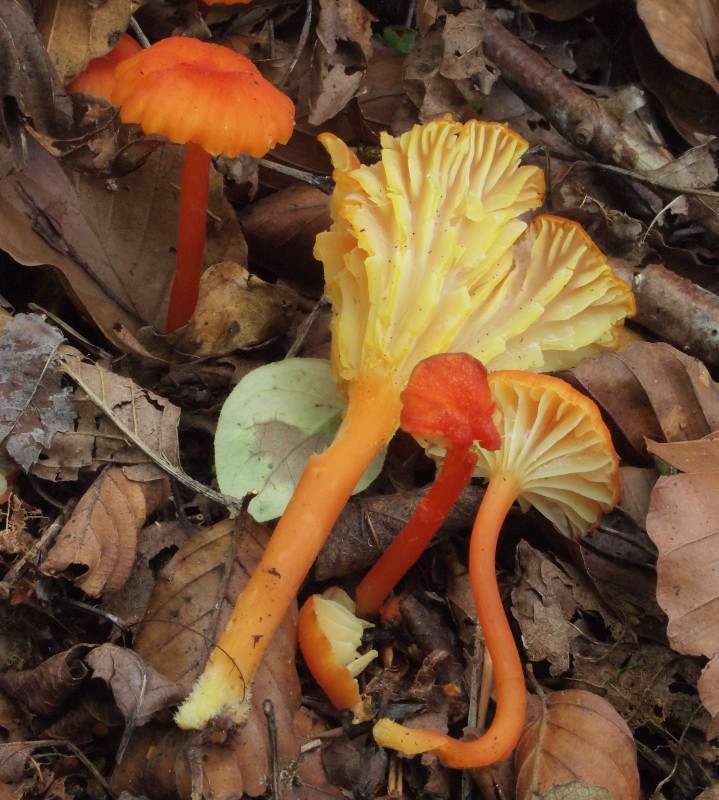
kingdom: Fungi
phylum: Basidiomycota
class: Agaricomycetes
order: Agaricales
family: Hygrophoraceae
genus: Hygrocybe
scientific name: Hygrocybe cantharellus
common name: kantarel-vokshat
